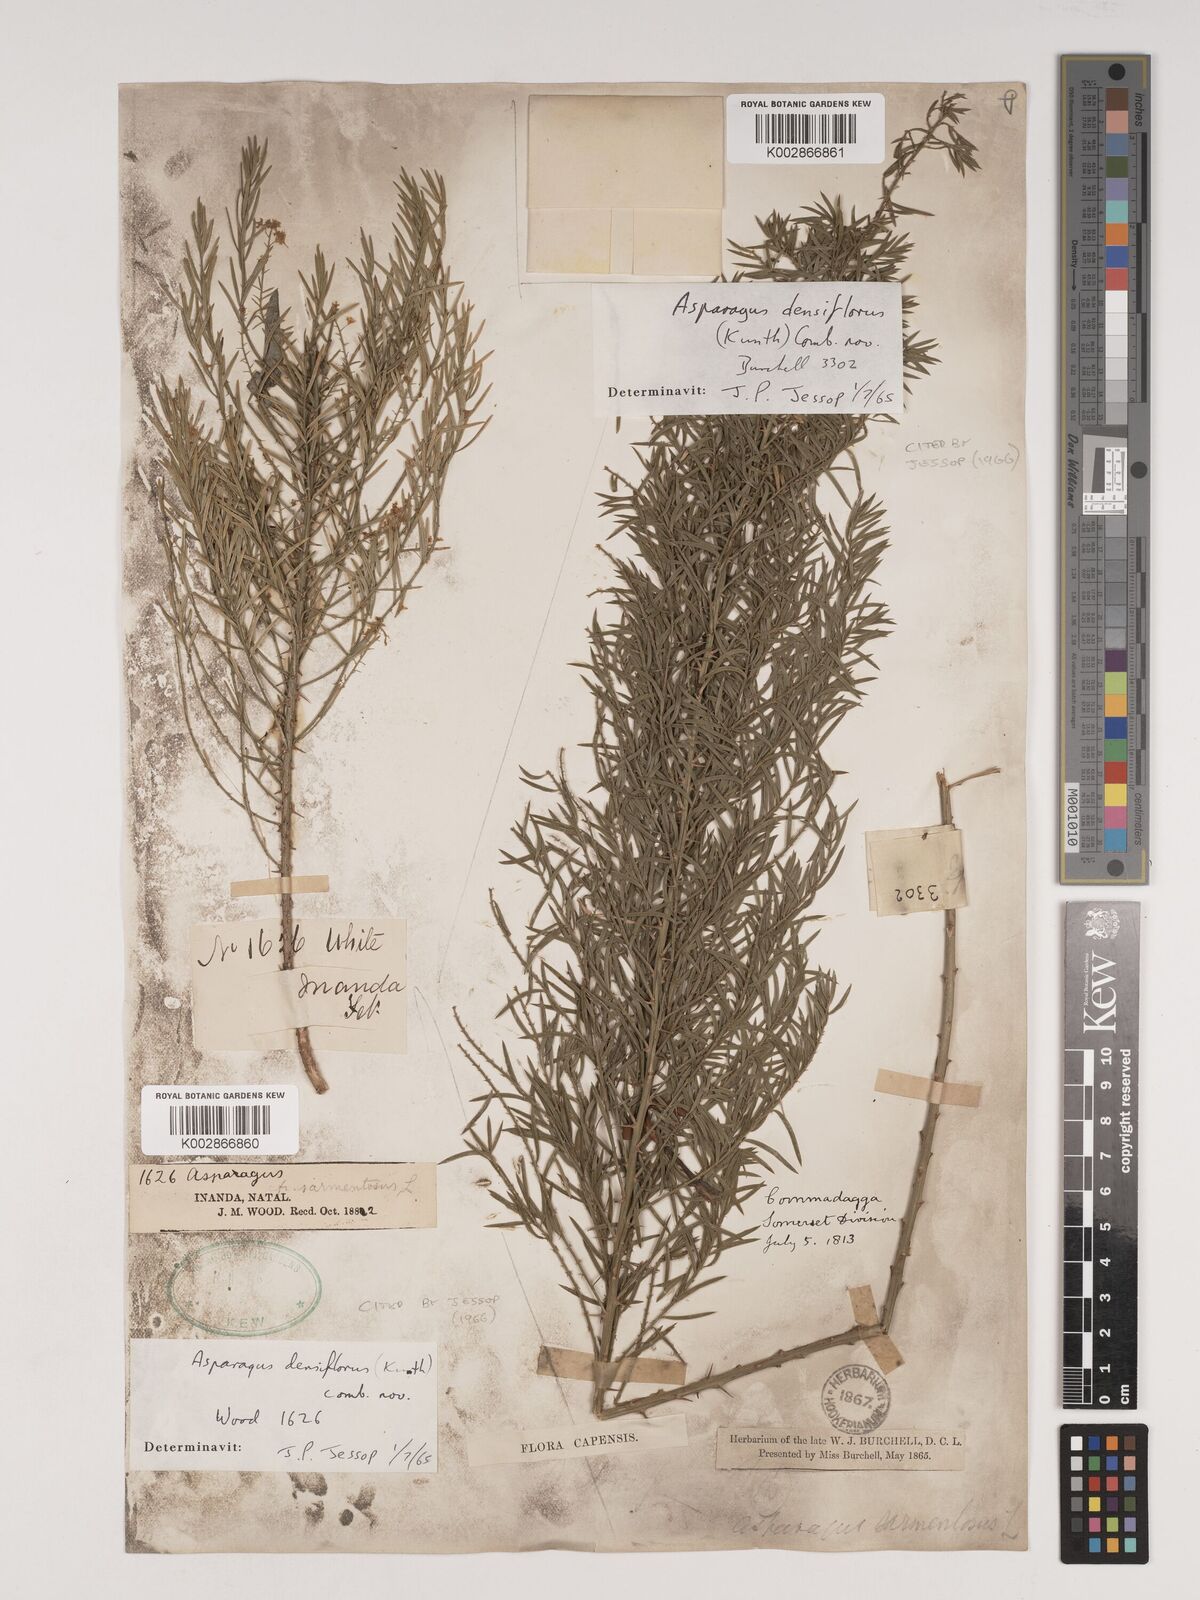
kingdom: Plantae
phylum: Tracheophyta
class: Liliopsida
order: Asparagales
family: Asparagaceae
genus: Asparagus
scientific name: Asparagus densiflorus
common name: Asparagus fern
